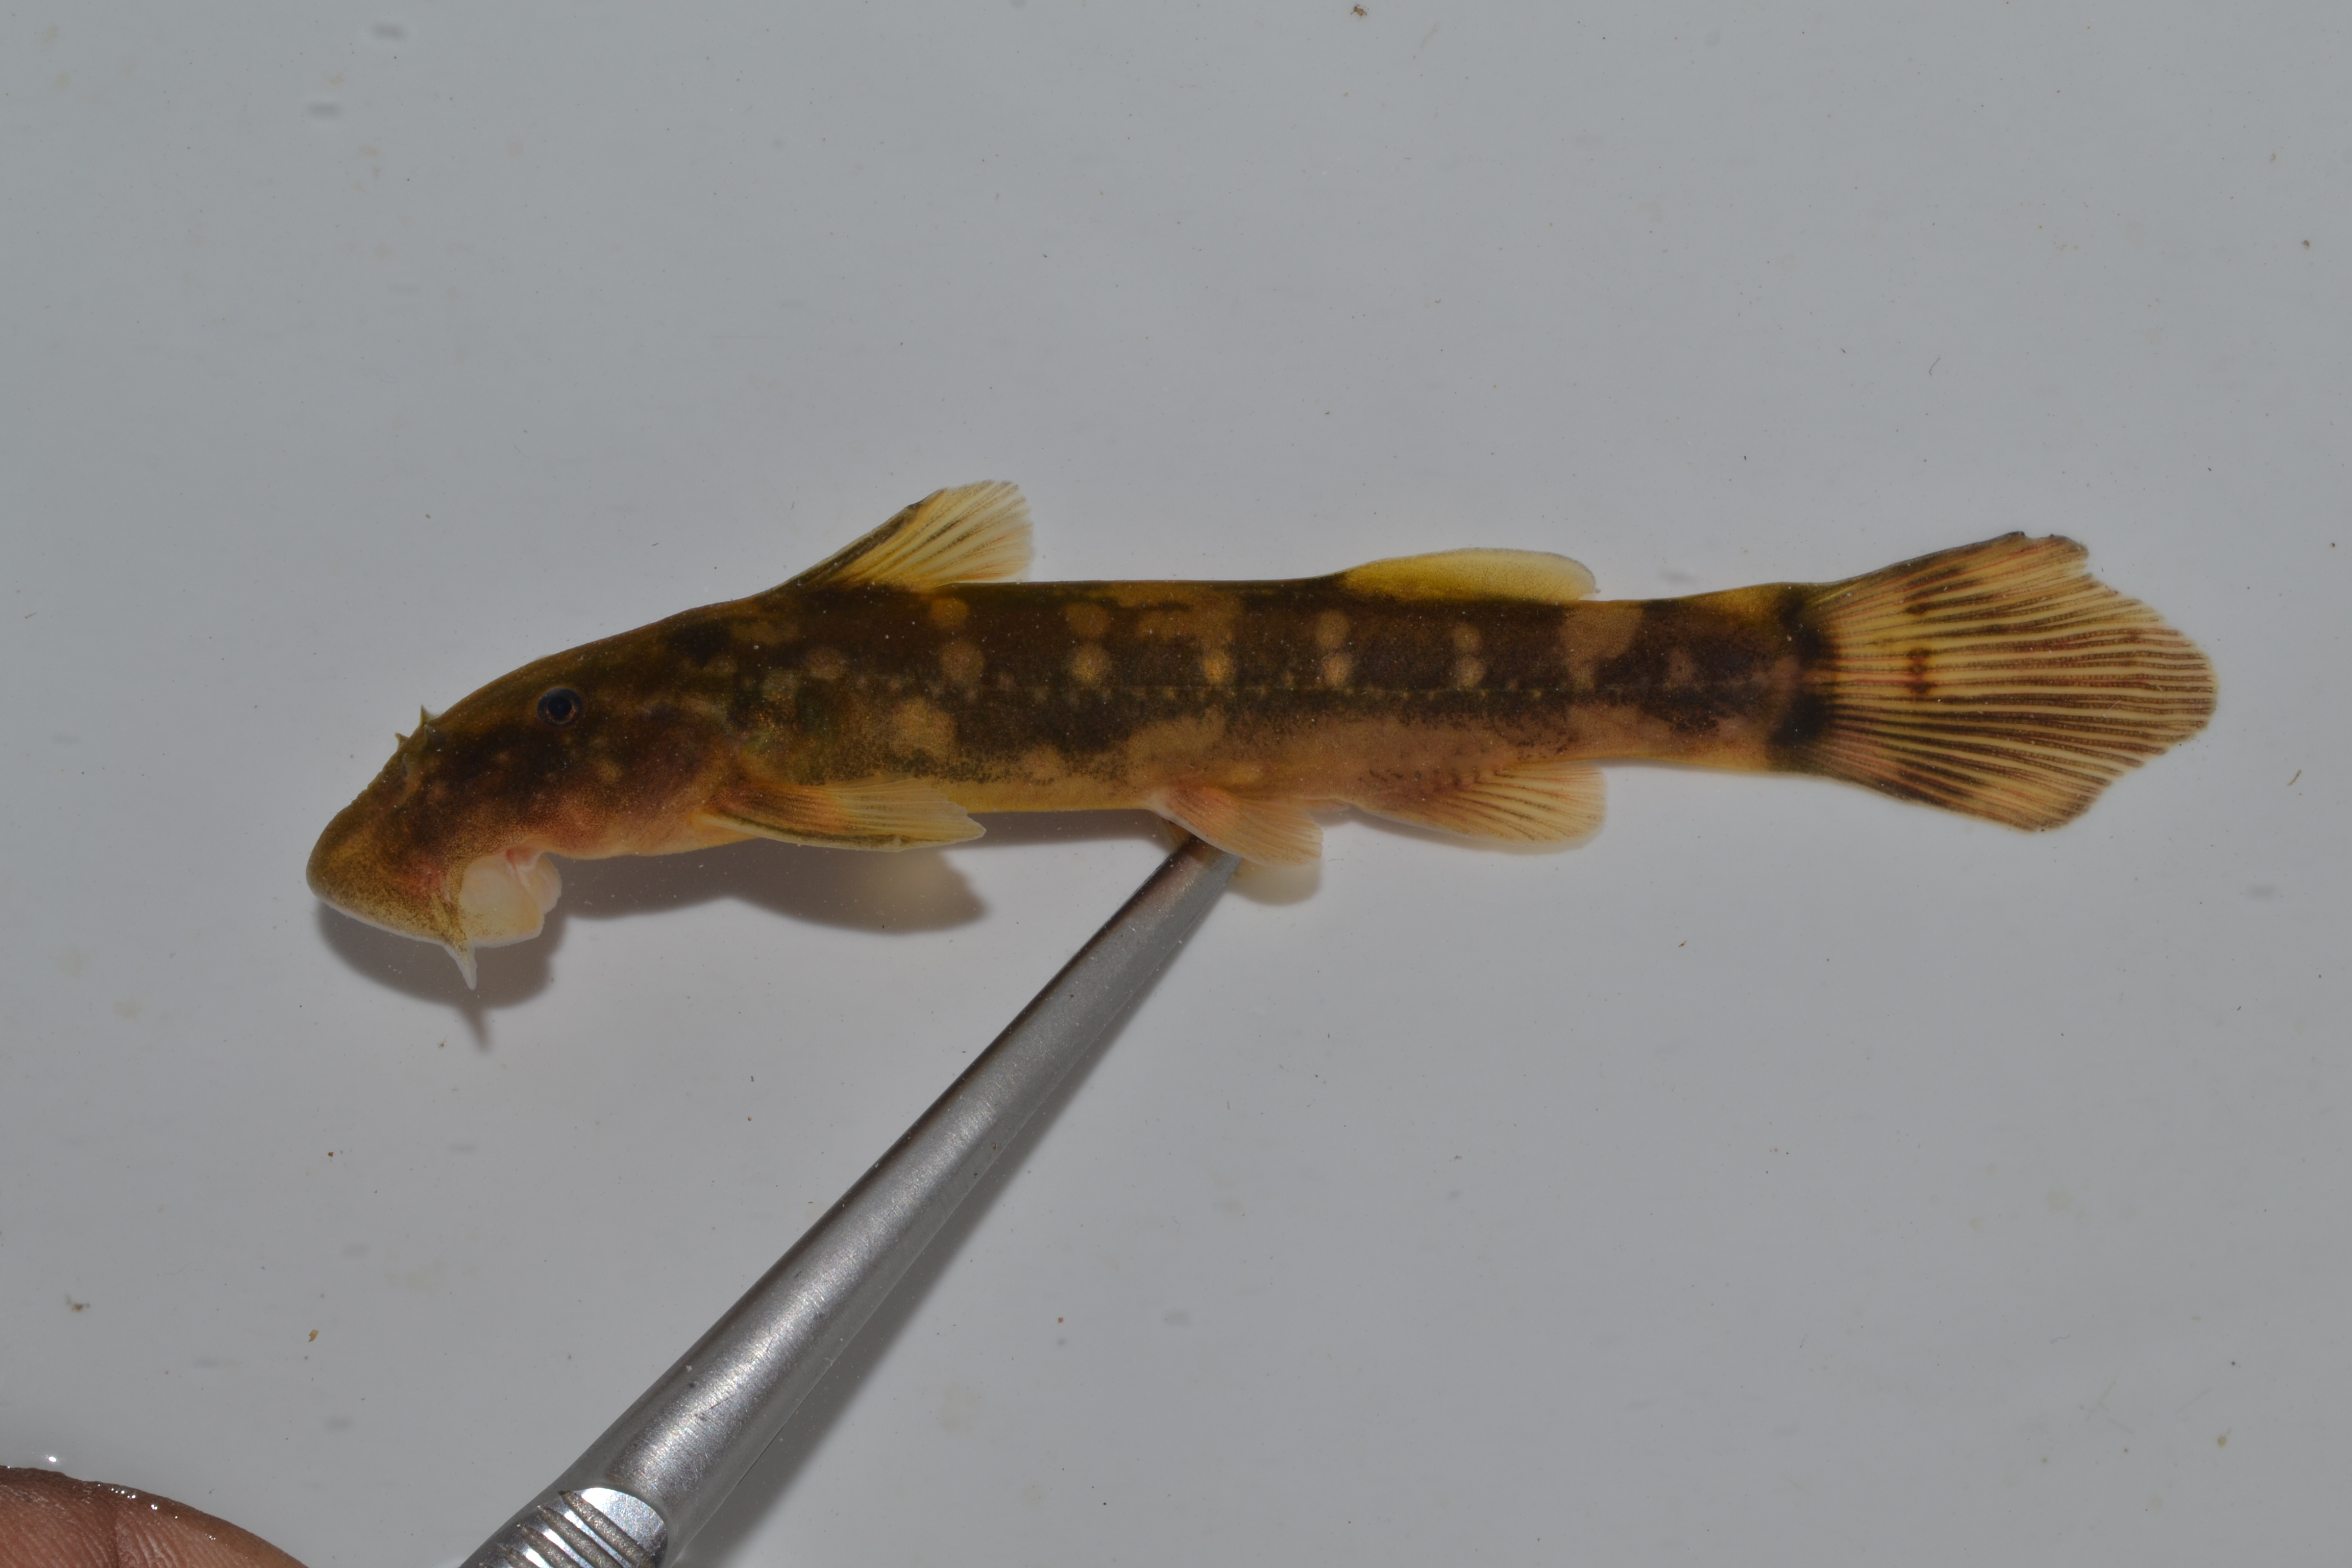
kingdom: Animalia
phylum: Chordata
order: Siluriformes
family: Mochokidae
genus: Chiloglanis
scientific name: Chiloglanis anoterus
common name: Pennant-tailed catlet
